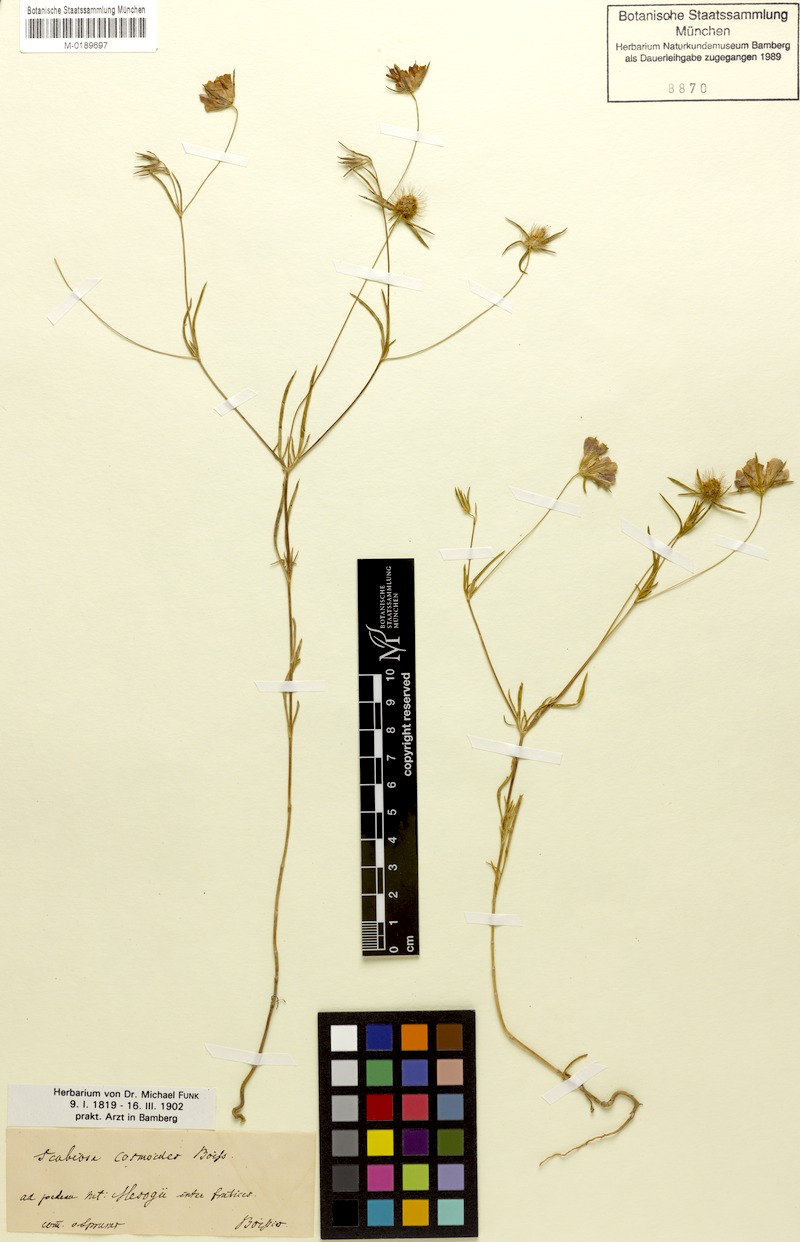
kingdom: Plantae
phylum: Tracheophyta
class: Magnoliopsida
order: Dipsacales
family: Caprifoliaceae
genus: Lomelosia
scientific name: Lomelosia cosmoides
